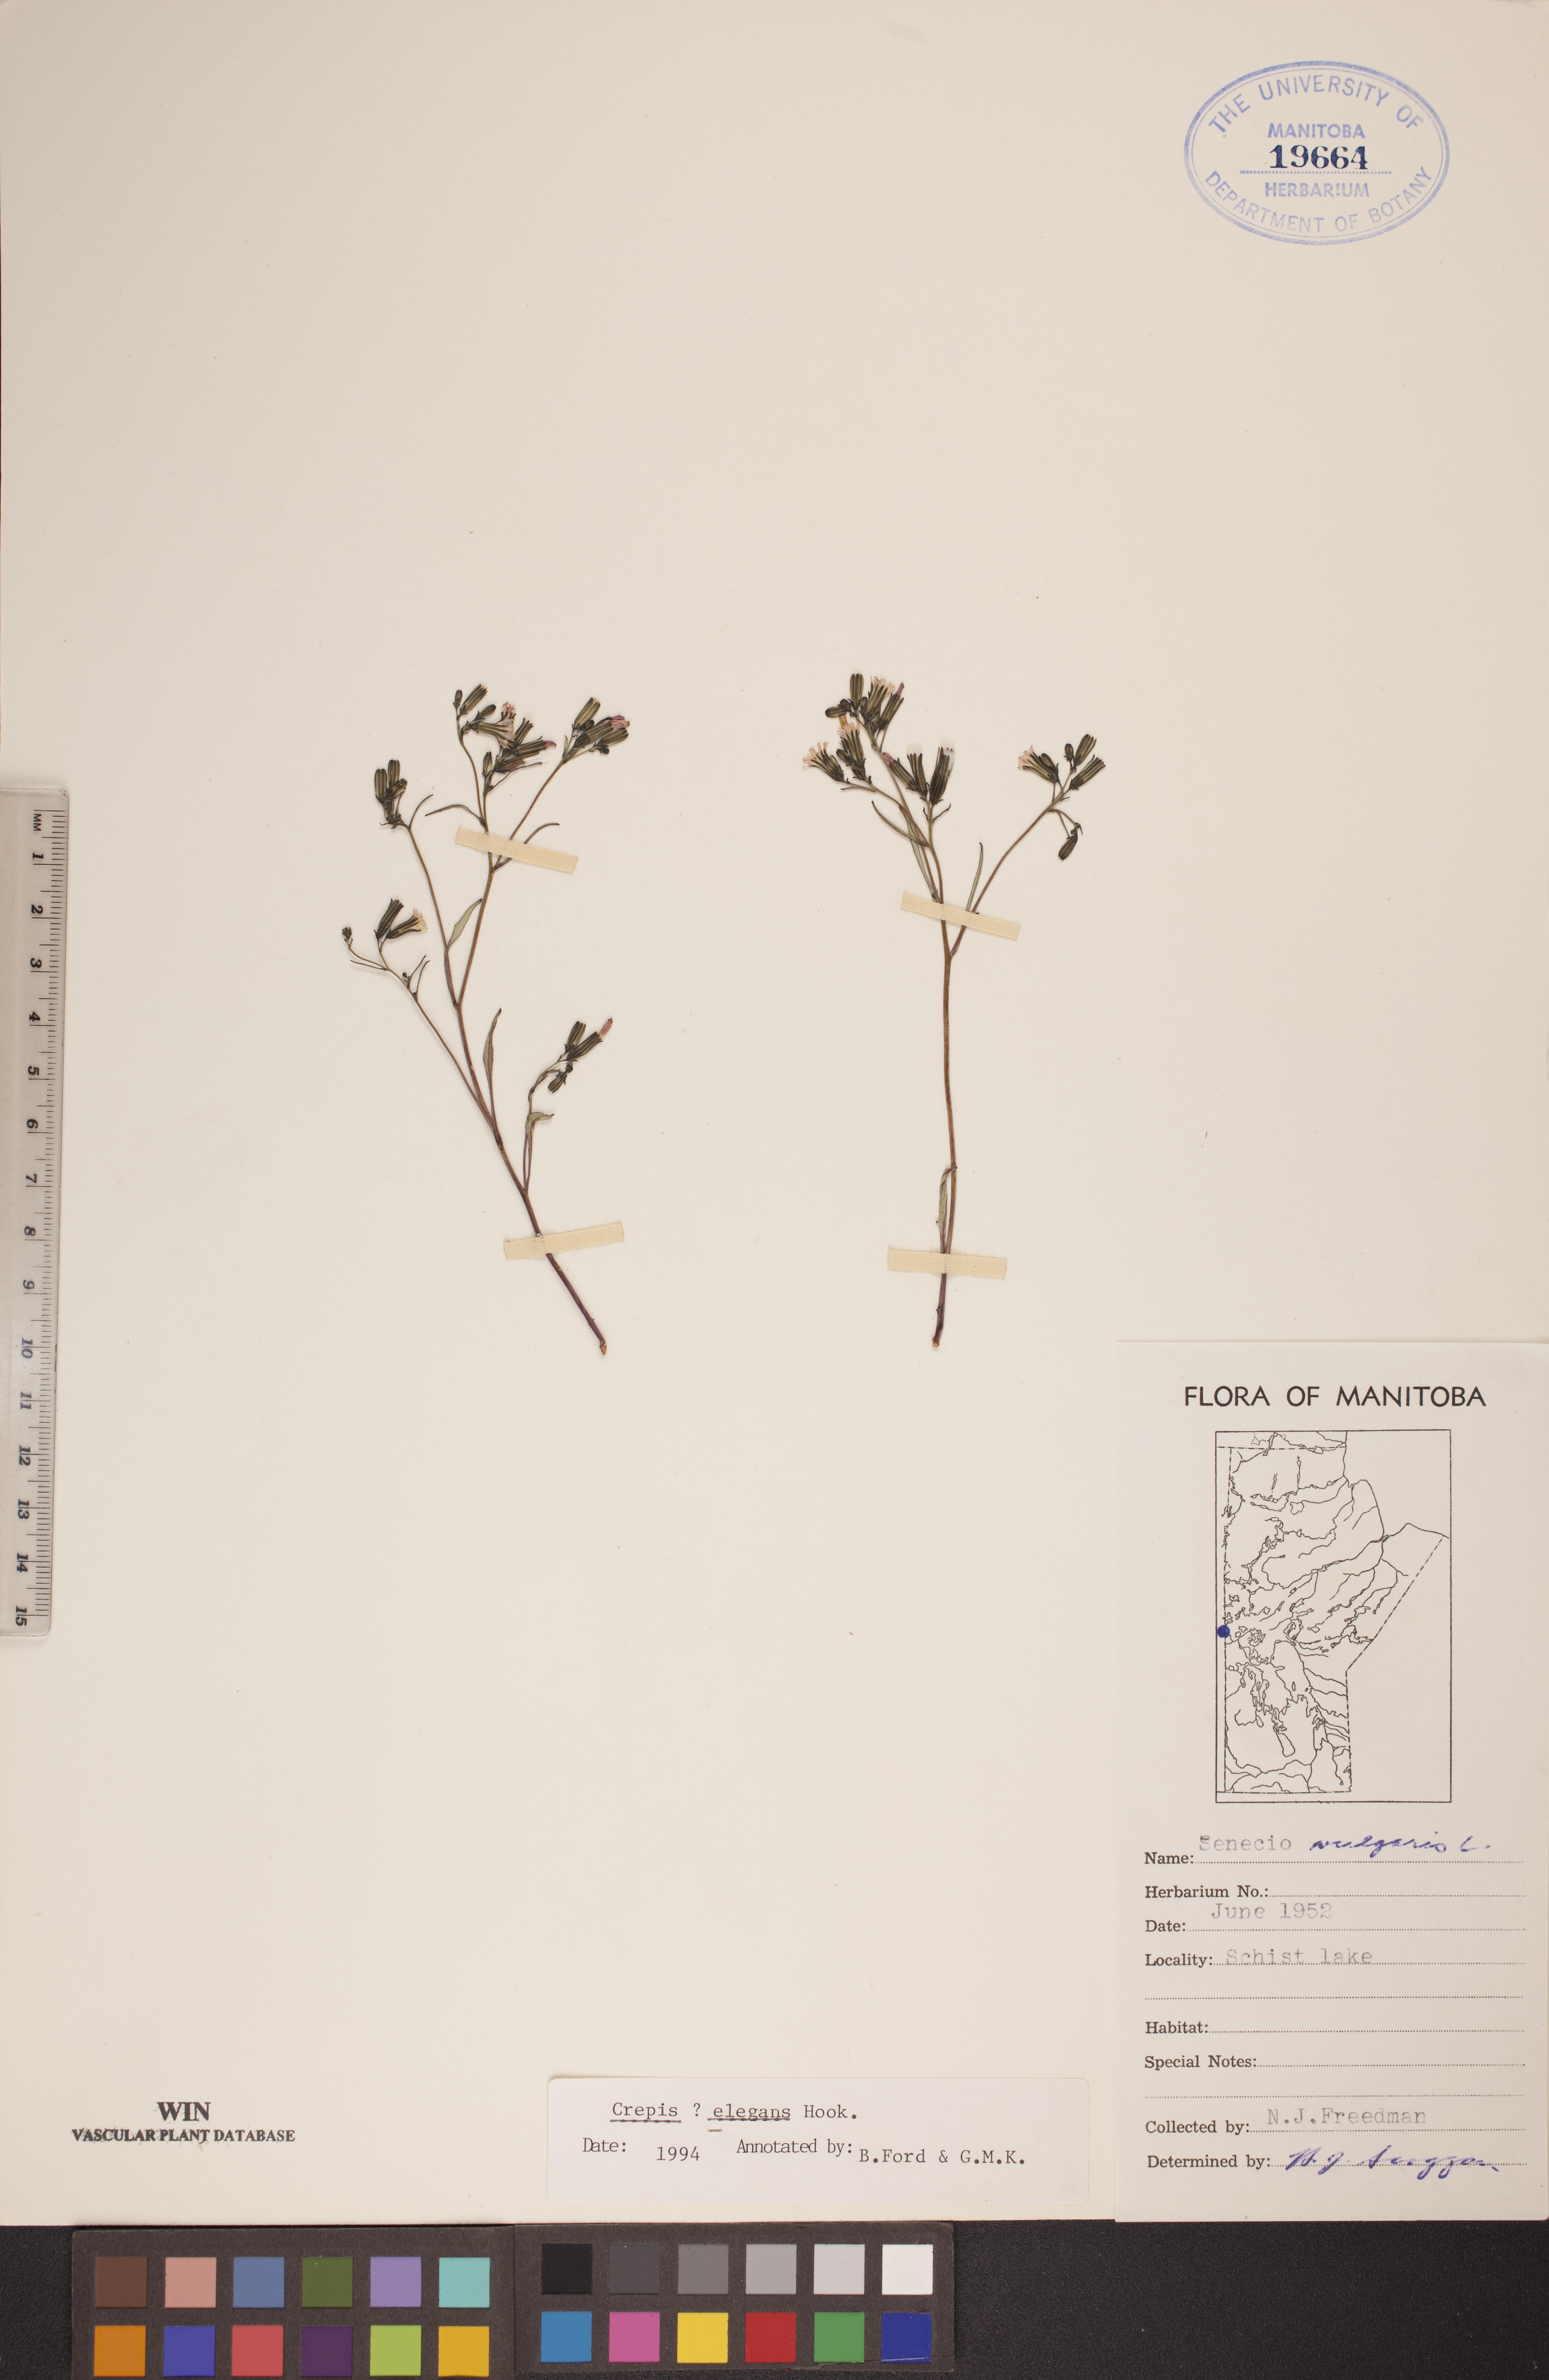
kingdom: Plantae
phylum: Tracheophyta
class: Magnoliopsida
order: Asterales
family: Asteraceae
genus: Askellia
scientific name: Askellia elegans
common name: Elegant hawksbeard
